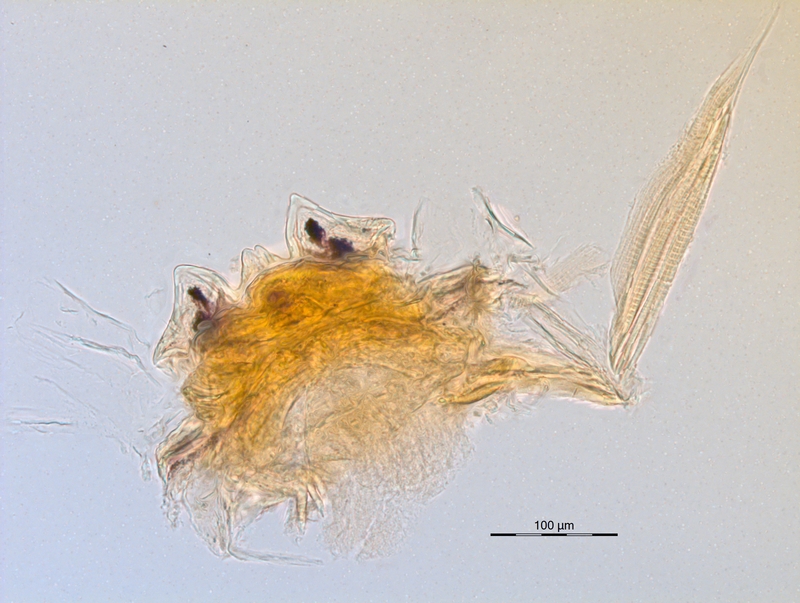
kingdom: Animalia
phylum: Arthropoda
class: Diplopoda
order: Chordeumatida
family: Craspedosomatidae
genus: Euceratosoma
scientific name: Euceratosoma elaphron
